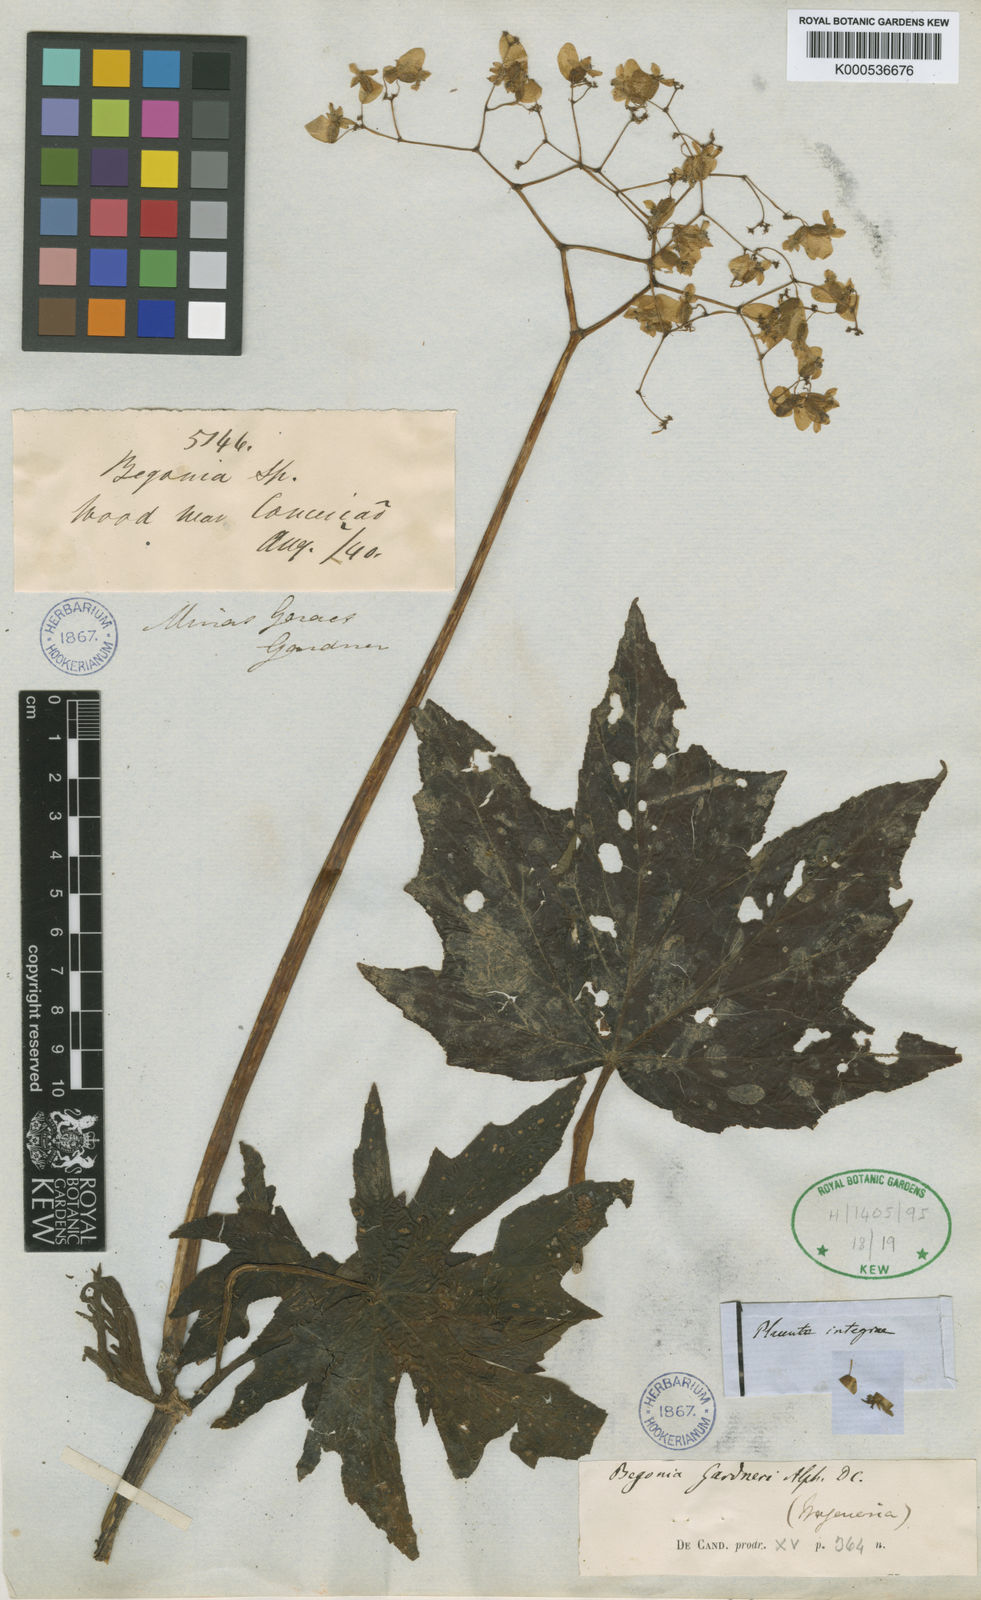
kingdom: Plantae
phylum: Tracheophyta
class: Magnoliopsida
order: Cucurbitales
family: Begoniaceae
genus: Begonia
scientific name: Begonia gardneri
